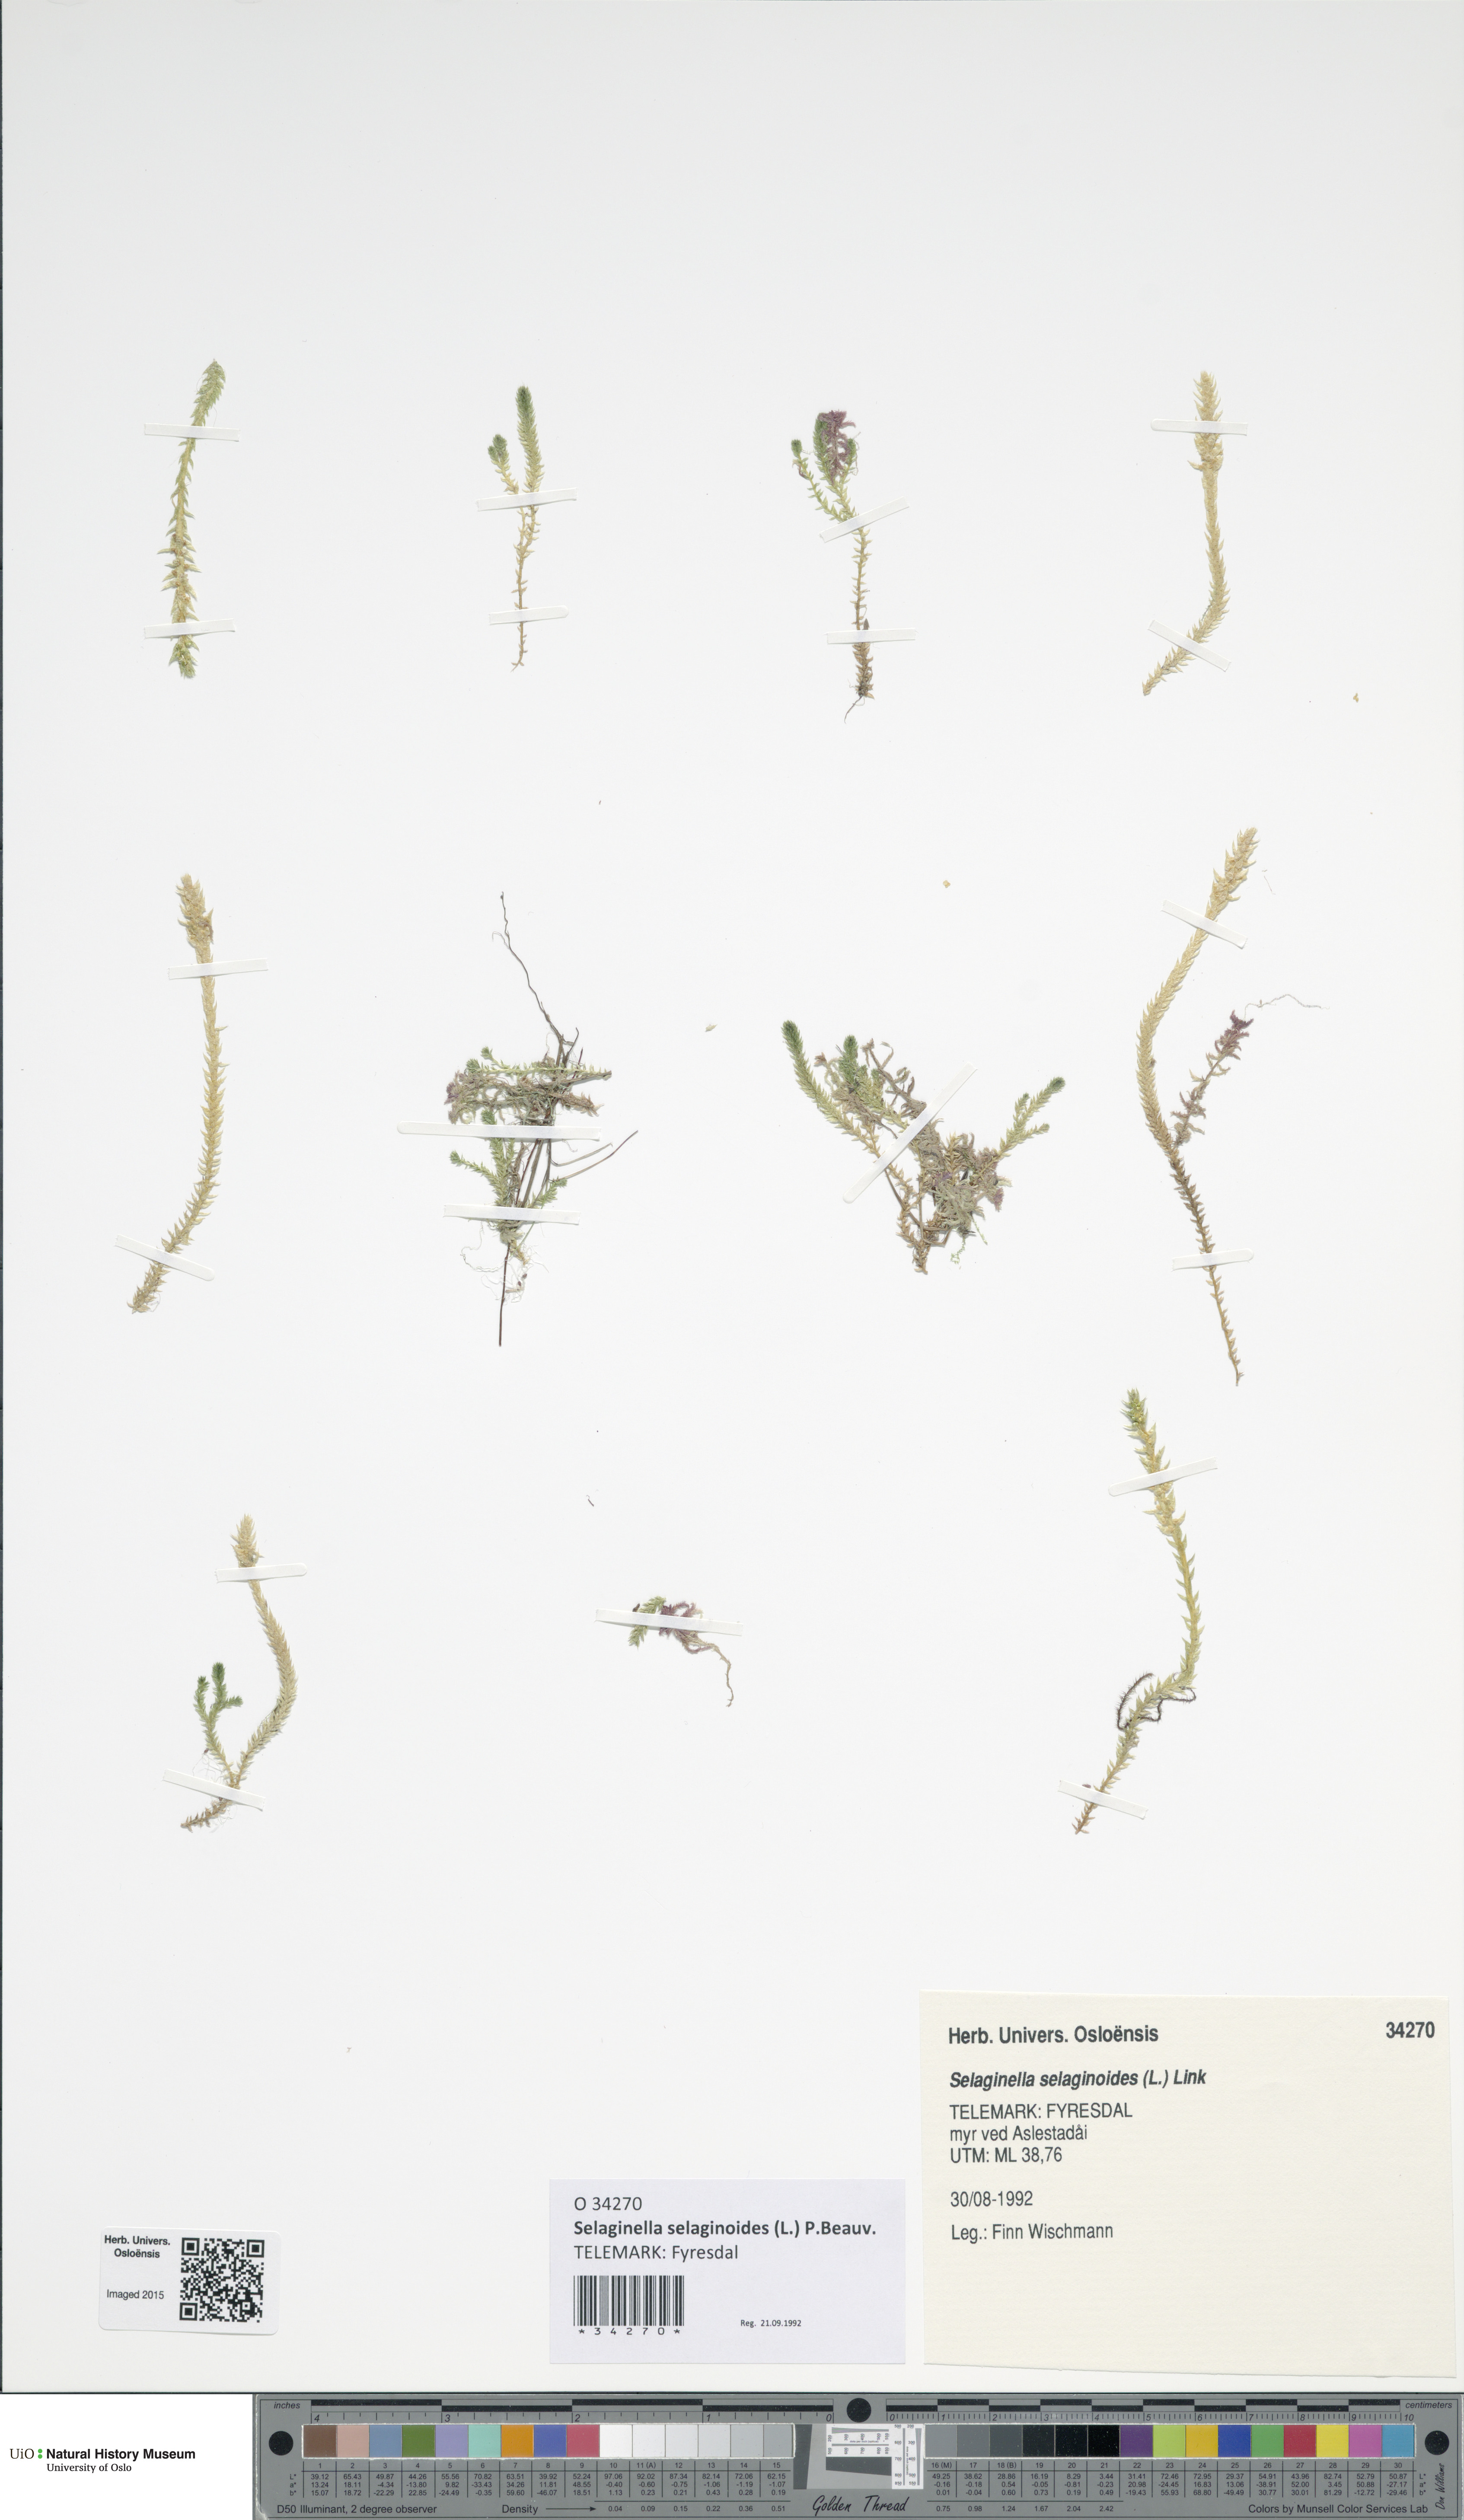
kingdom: Plantae
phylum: Tracheophyta
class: Lycopodiopsida
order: Selaginellales
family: Selaginellaceae
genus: Selaginella
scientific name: Selaginella selaginoides
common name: Prickly mountain-moss
